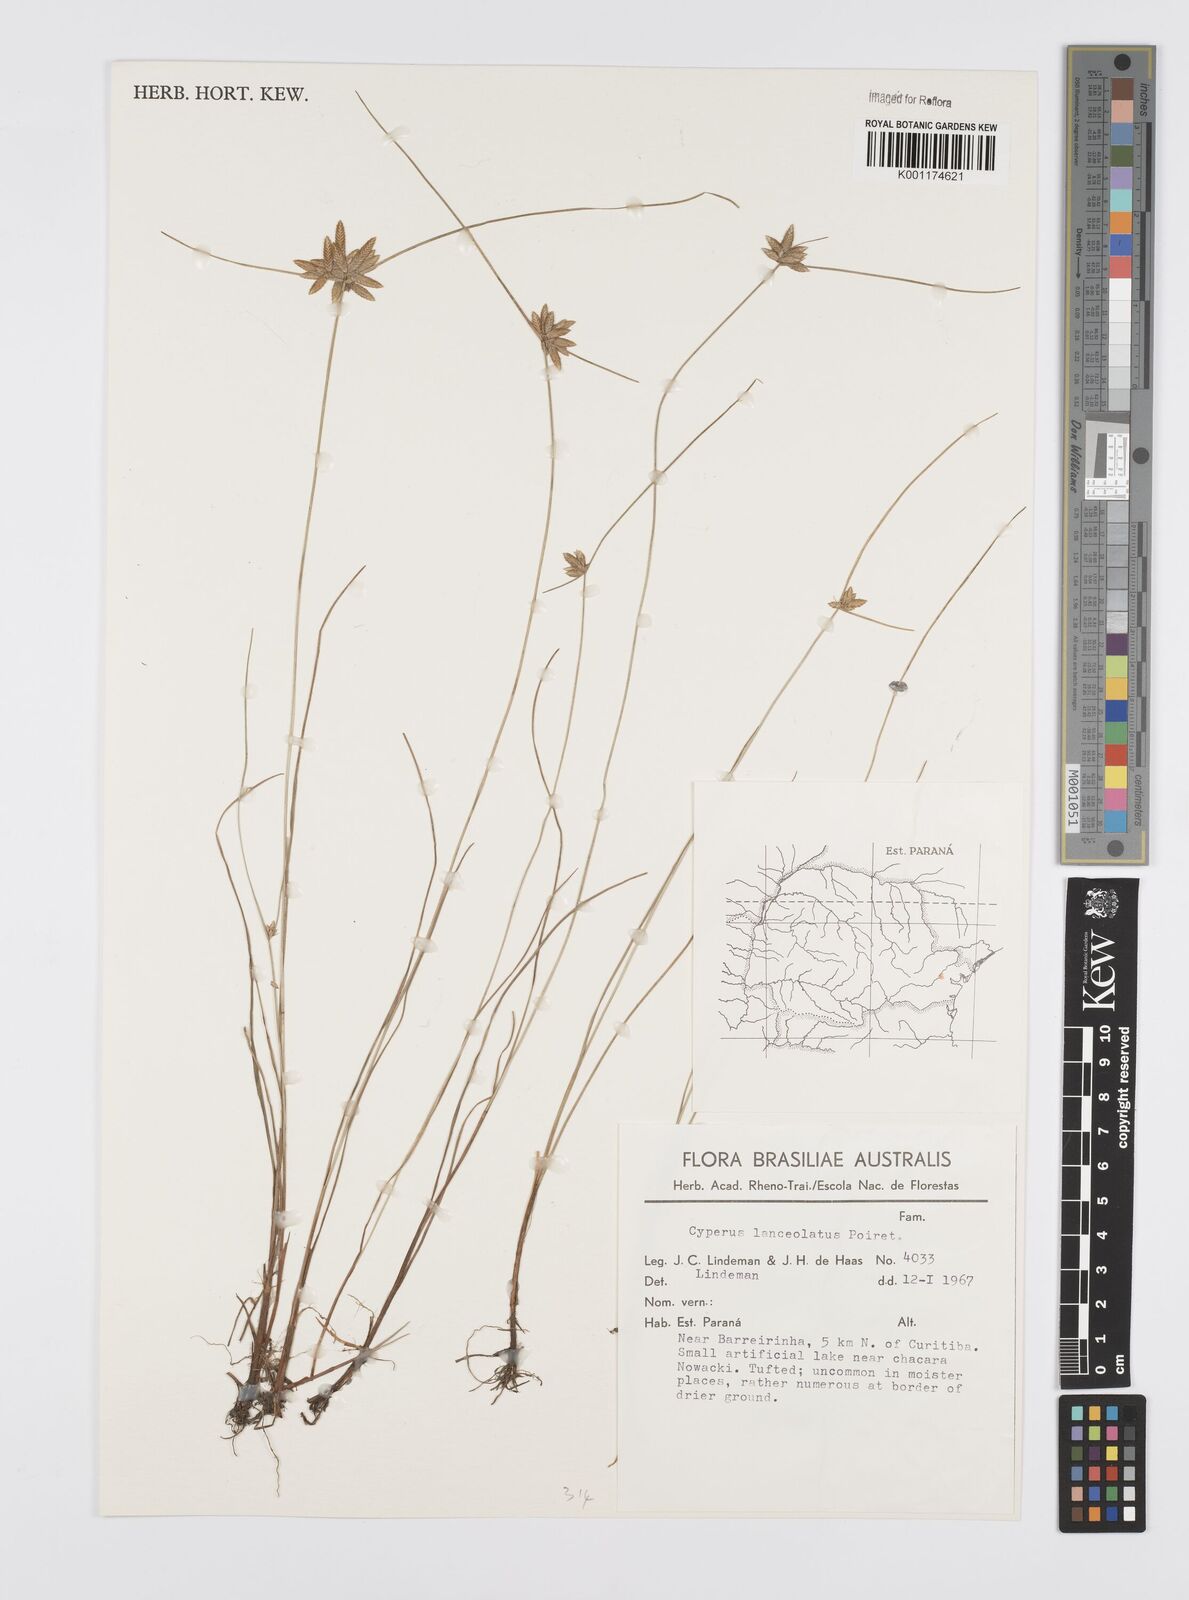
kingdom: Plantae
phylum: Tracheophyta
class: Liliopsida
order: Poales
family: Cyperaceae
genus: Cyperus
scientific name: Cyperus
